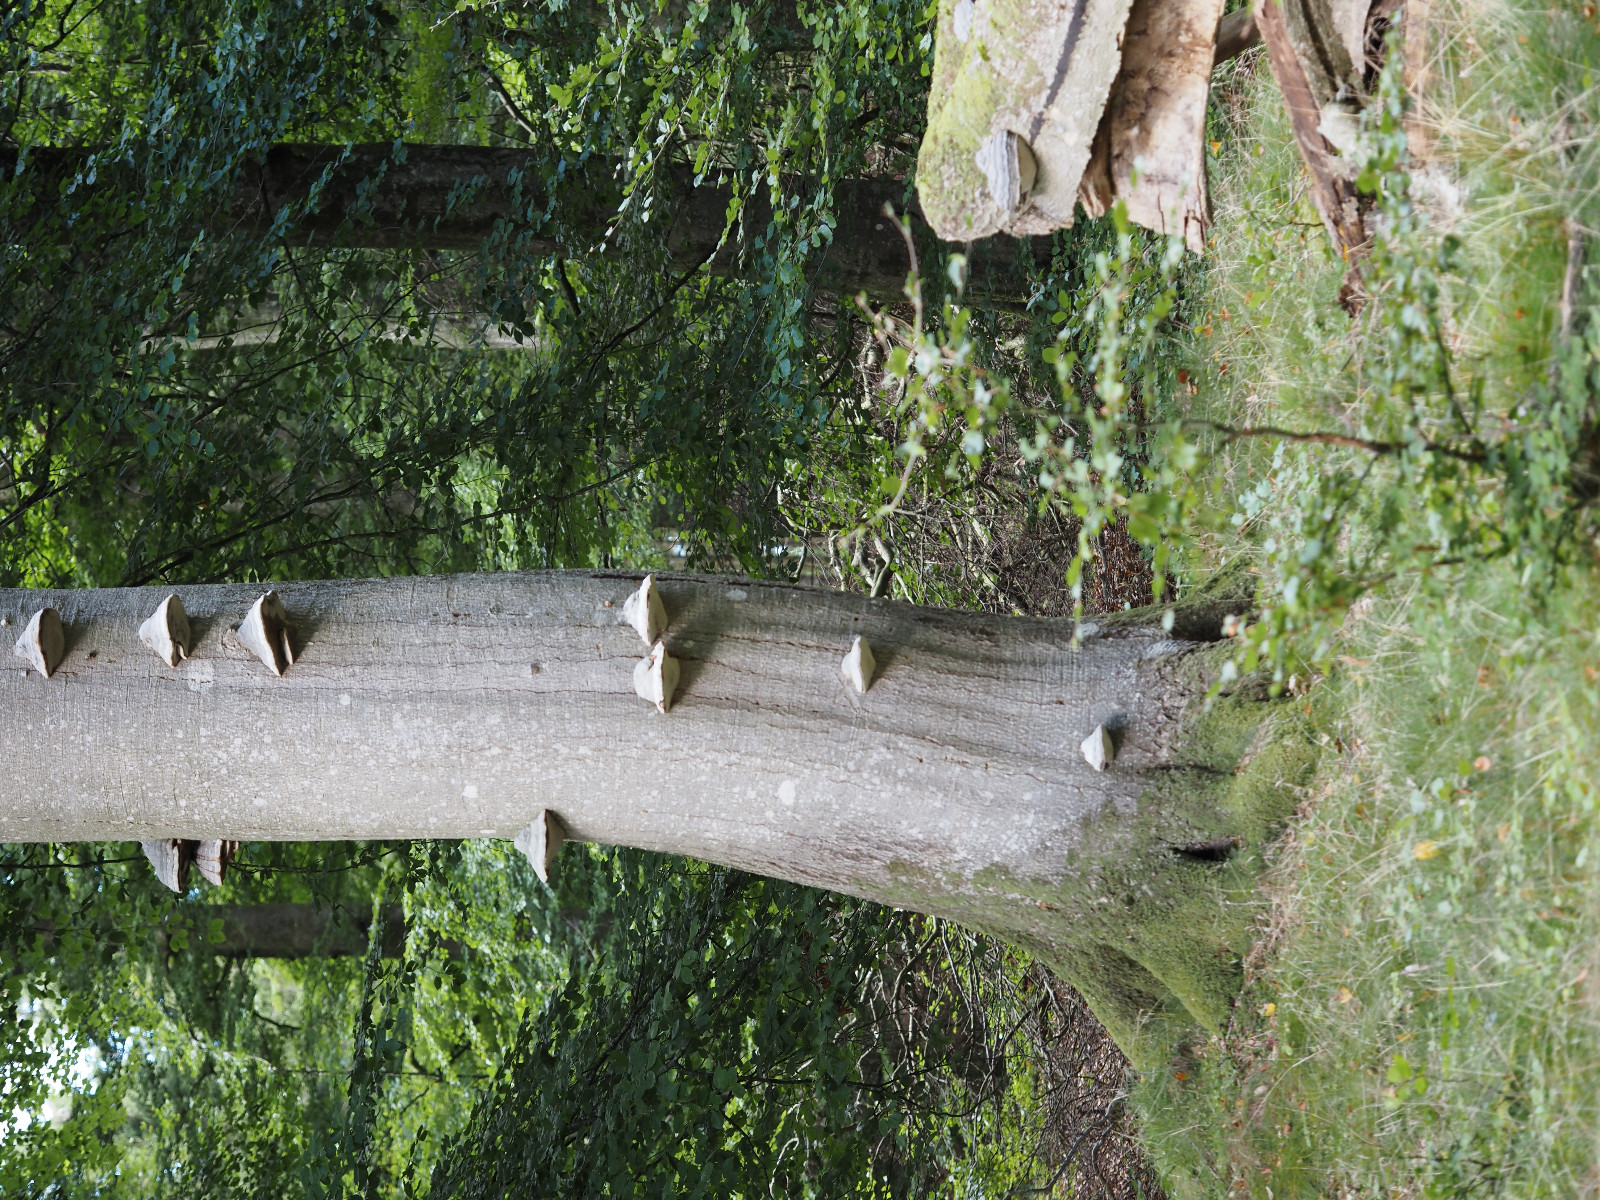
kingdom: Fungi
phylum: Basidiomycota
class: Agaricomycetes
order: Polyporales
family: Polyporaceae
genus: Fomes
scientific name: Fomes fomentarius
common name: tøndersvamp
